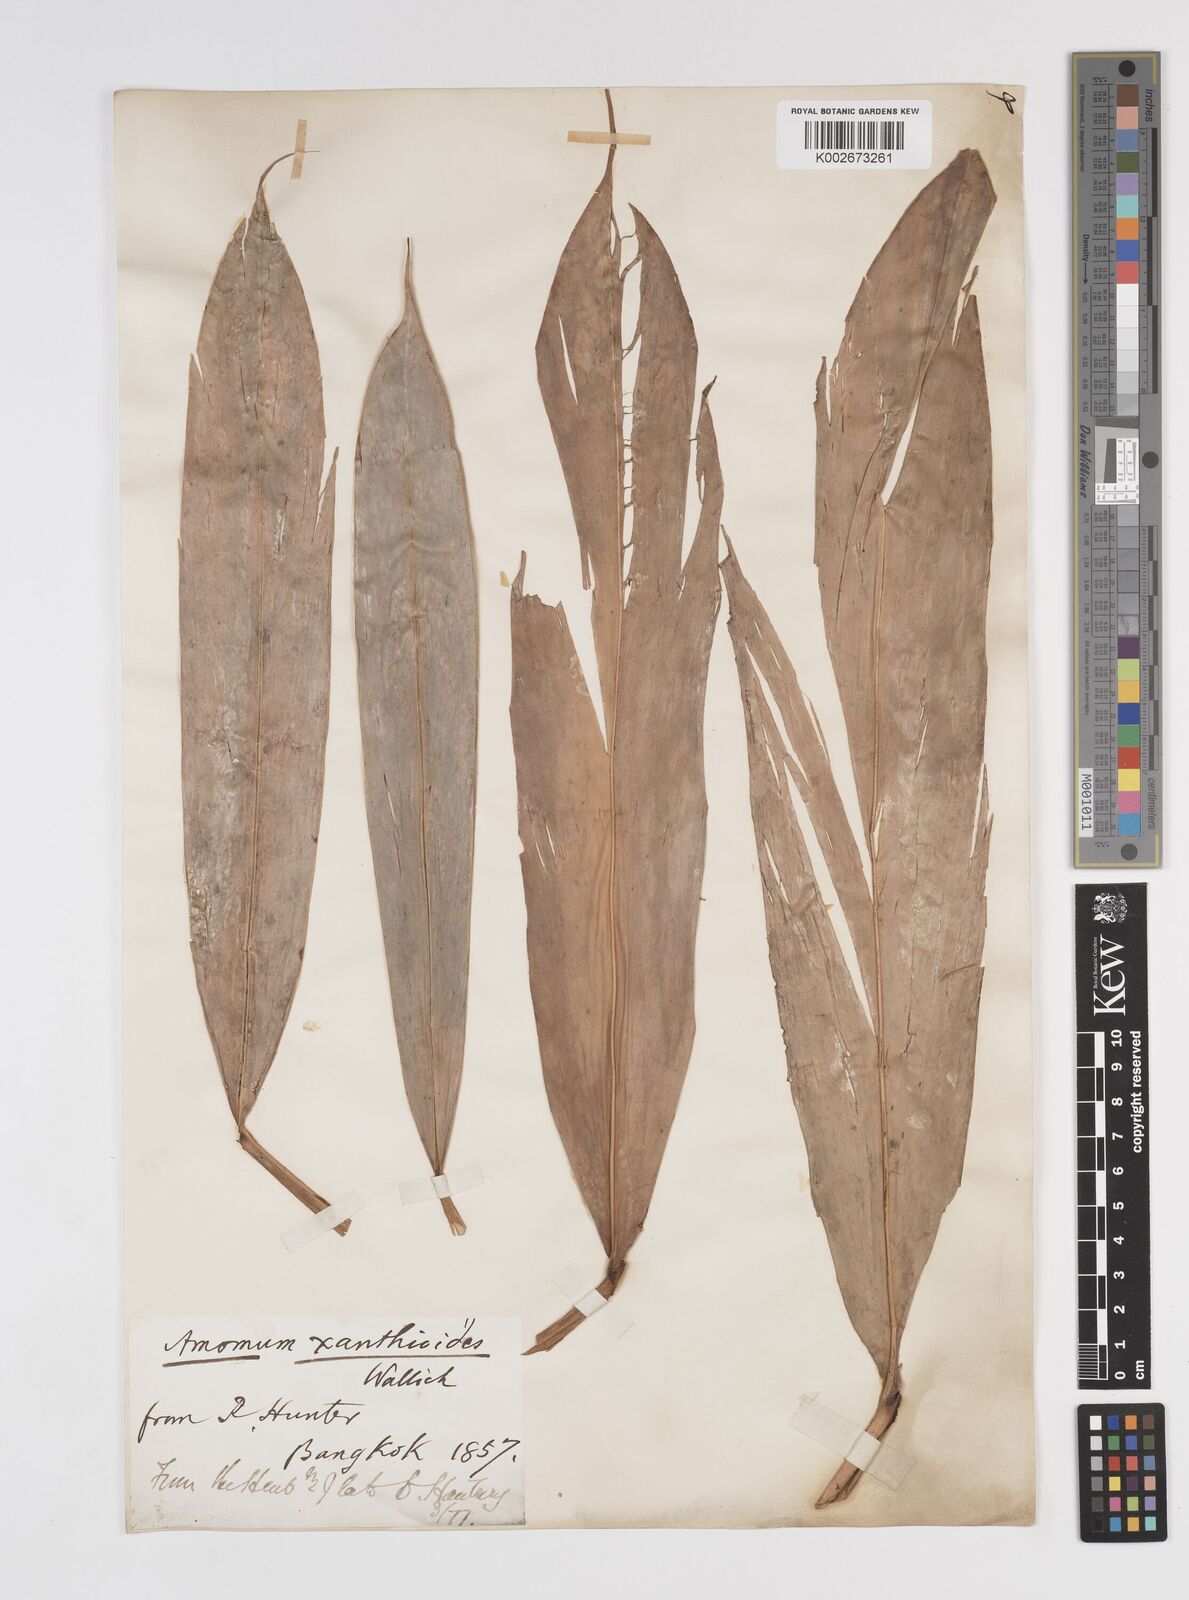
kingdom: Plantae
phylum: Tracheophyta
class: Liliopsida
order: Zingiberales
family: Zingiberaceae
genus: Wurfbainia
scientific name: Wurfbainia villosa
